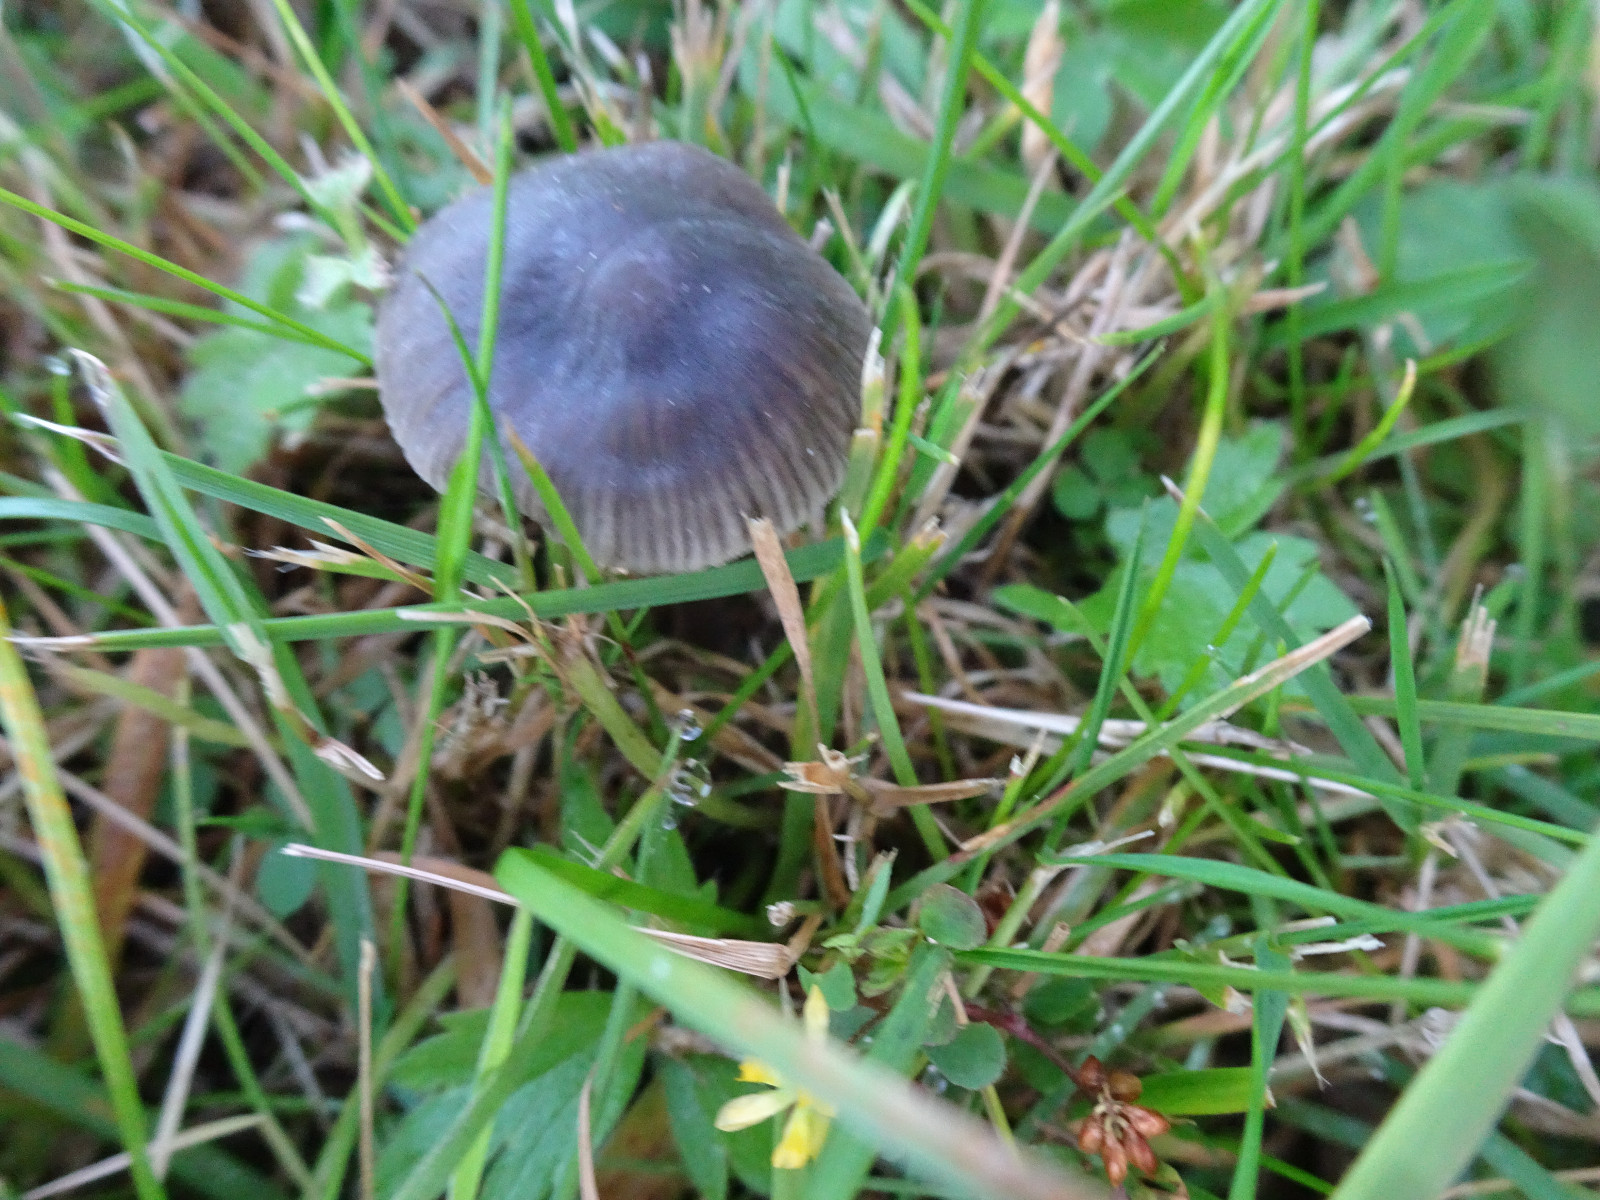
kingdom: Fungi
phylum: Basidiomycota
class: Agaricomycetes
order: Agaricales
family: Mycenaceae
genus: Mycena
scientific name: Mycena
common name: huesvamp
